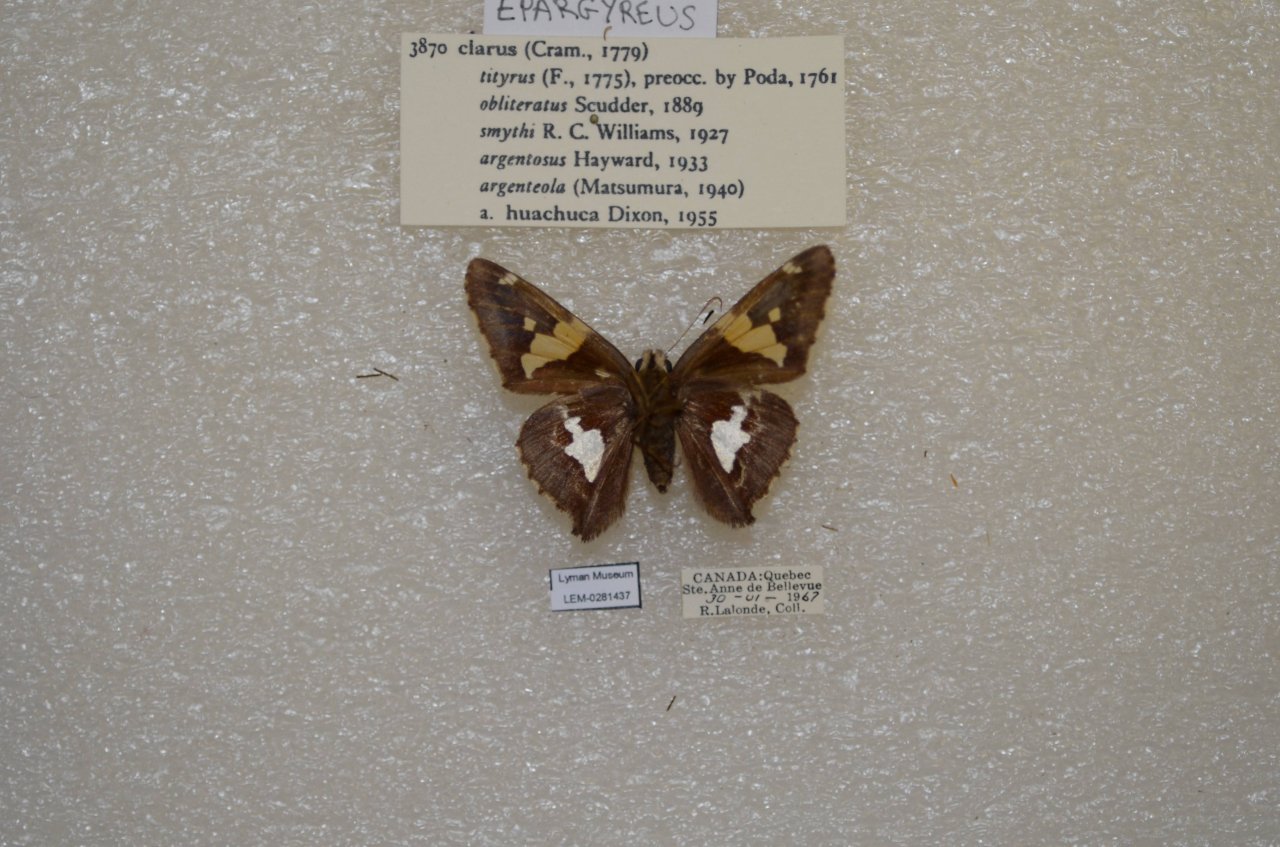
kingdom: Animalia
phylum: Arthropoda
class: Insecta
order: Lepidoptera
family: Hesperiidae
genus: Epargyreus
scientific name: Epargyreus clarus
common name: Silver-spotted Skipper
